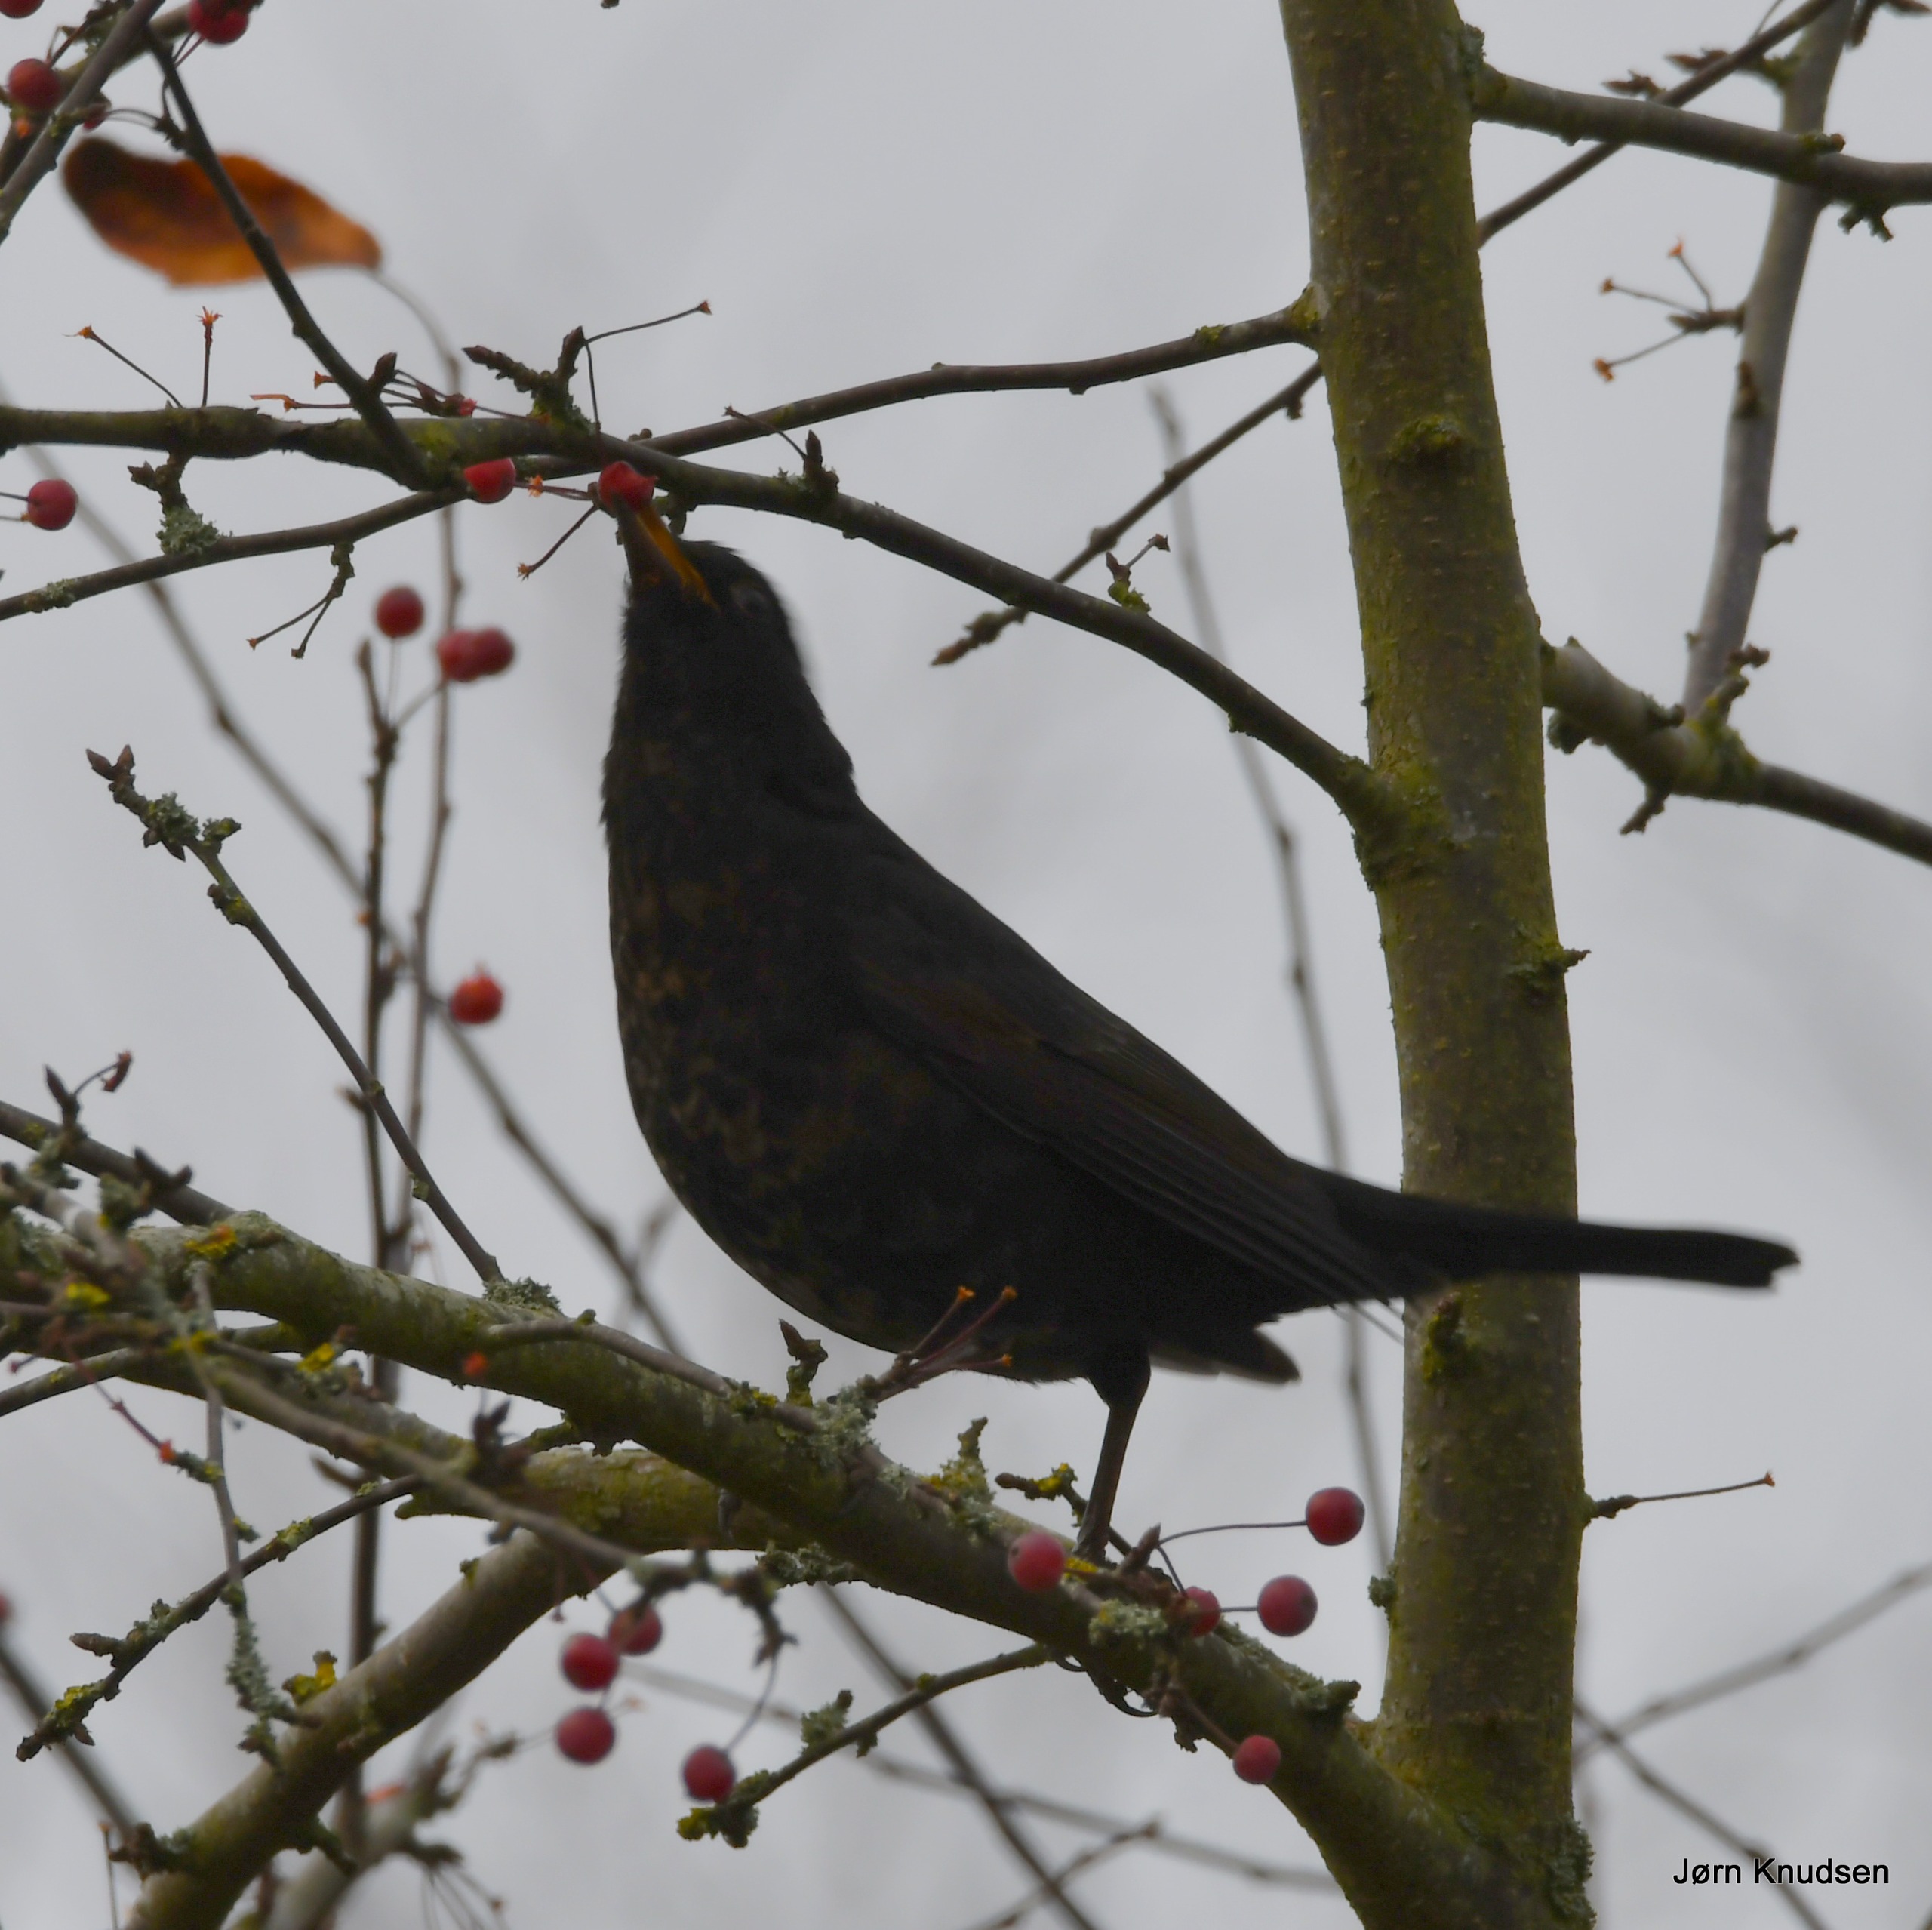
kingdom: Animalia
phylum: Chordata
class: Aves
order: Passeriformes
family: Turdidae
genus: Turdus
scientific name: Turdus merula
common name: Solsort
